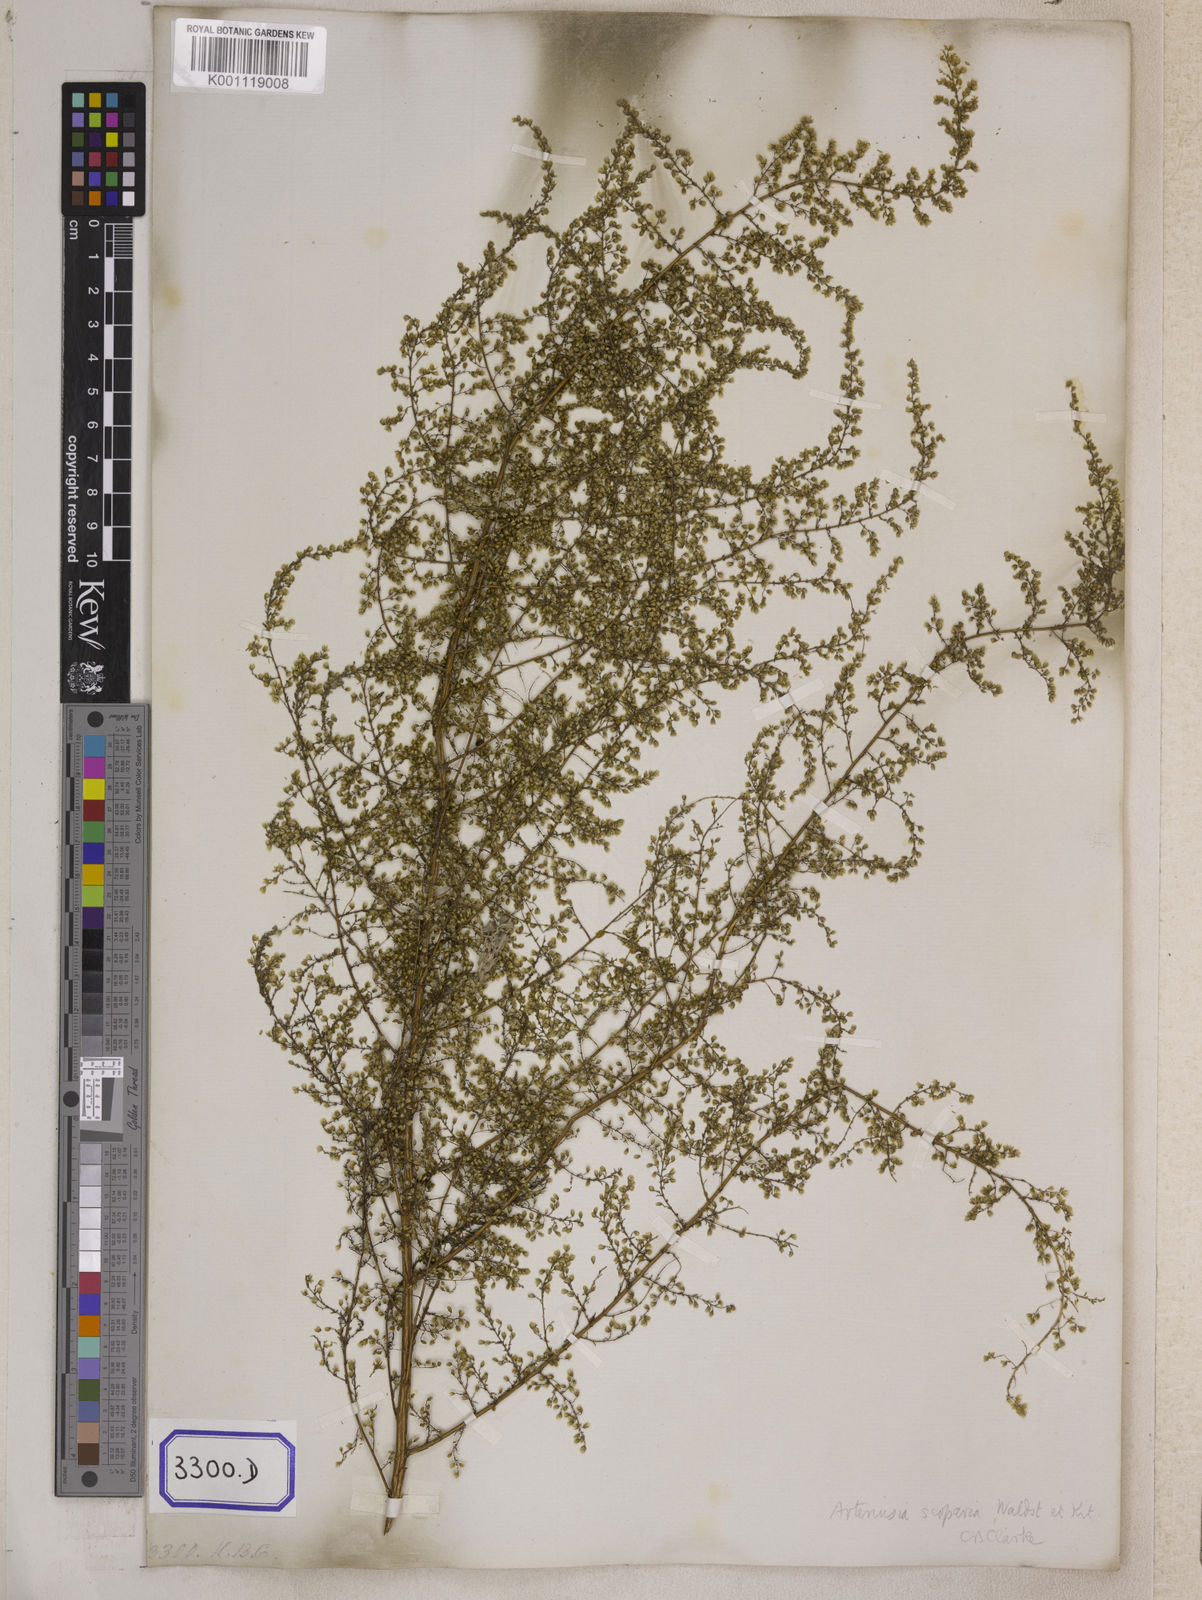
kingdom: Plantae
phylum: Tracheophyta
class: Magnoliopsida
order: Asterales
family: Asteraceae
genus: Artemisia
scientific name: Artemisia scoparia
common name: Redstem wormwood
